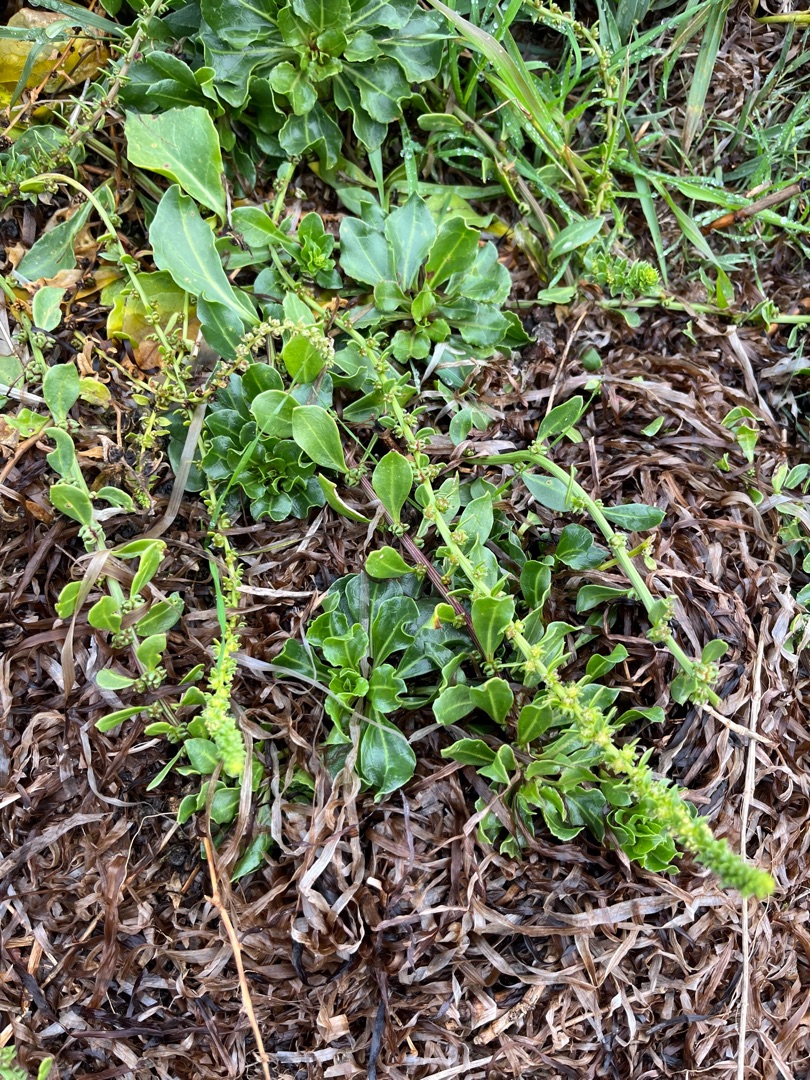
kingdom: Plantae
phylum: Tracheophyta
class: Magnoliopsida
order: Caryophyllales
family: Amaranthaceae
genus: Beta
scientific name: Beta maritima
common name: Strand-bede
